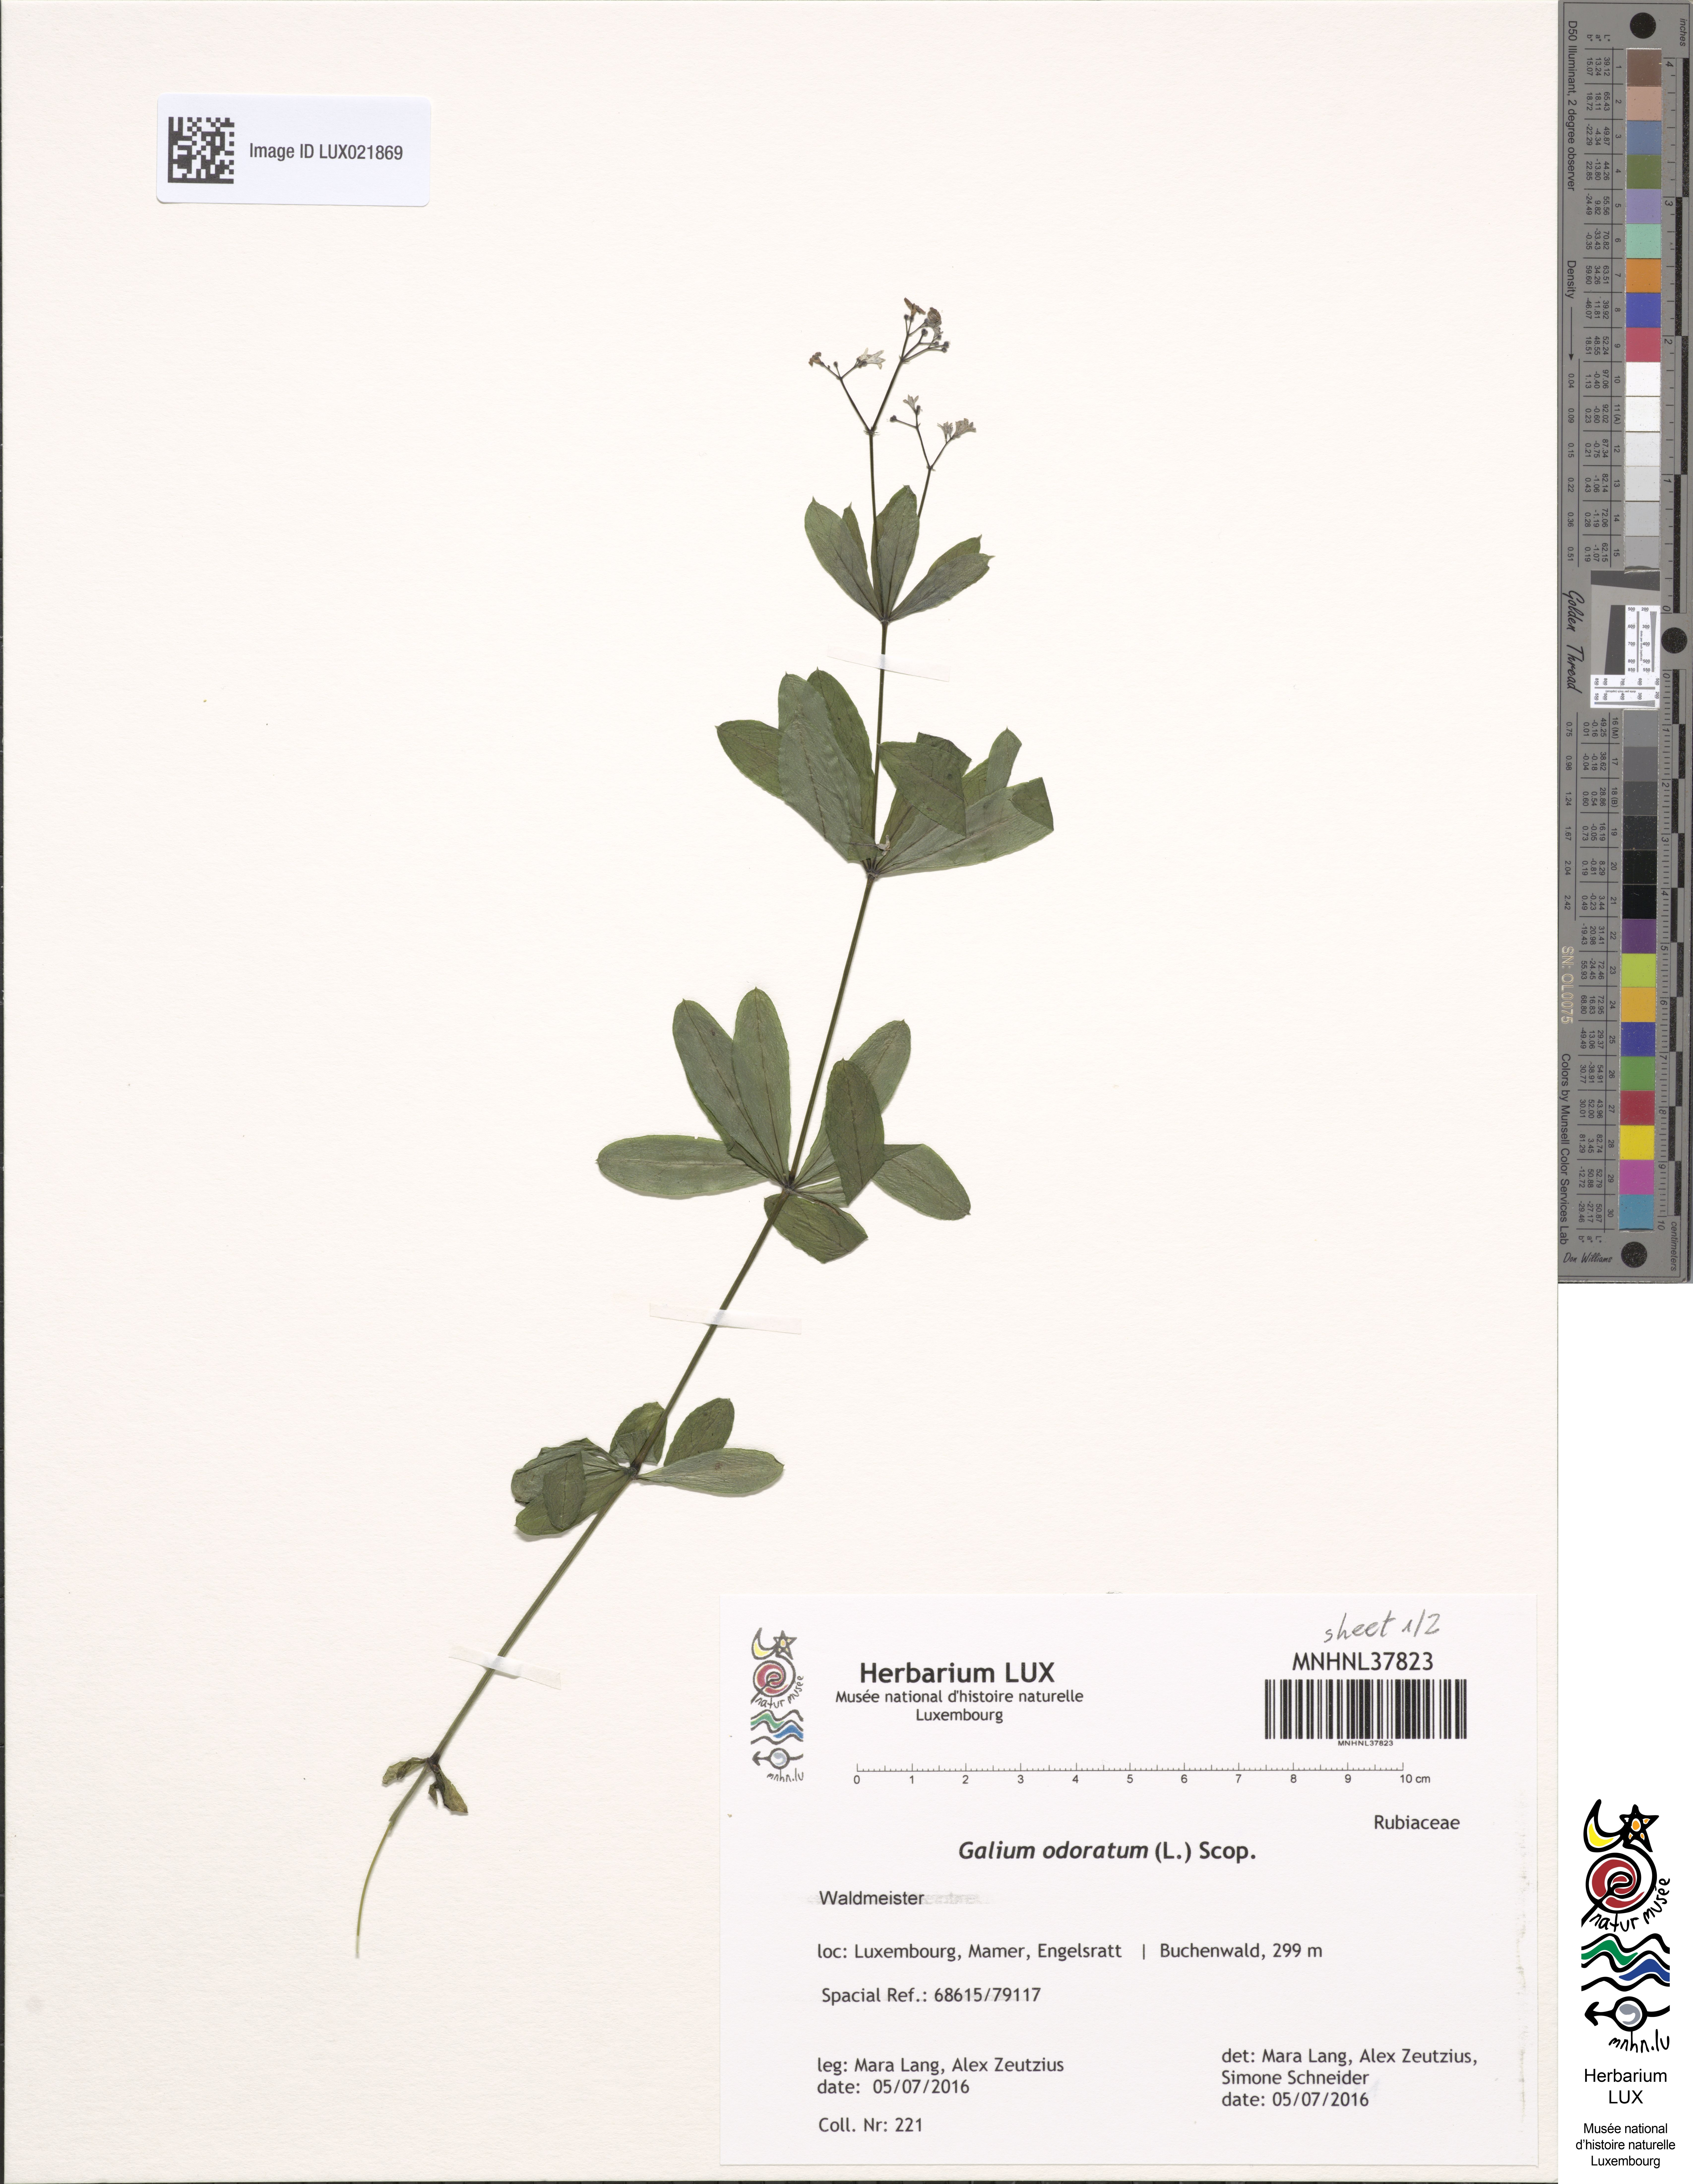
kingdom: Plantae
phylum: Tracheophyta
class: Magnoliopsida
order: Gentianales
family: Rubiaceae
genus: Galium
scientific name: Galium odoratum
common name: Sweet woodruff
